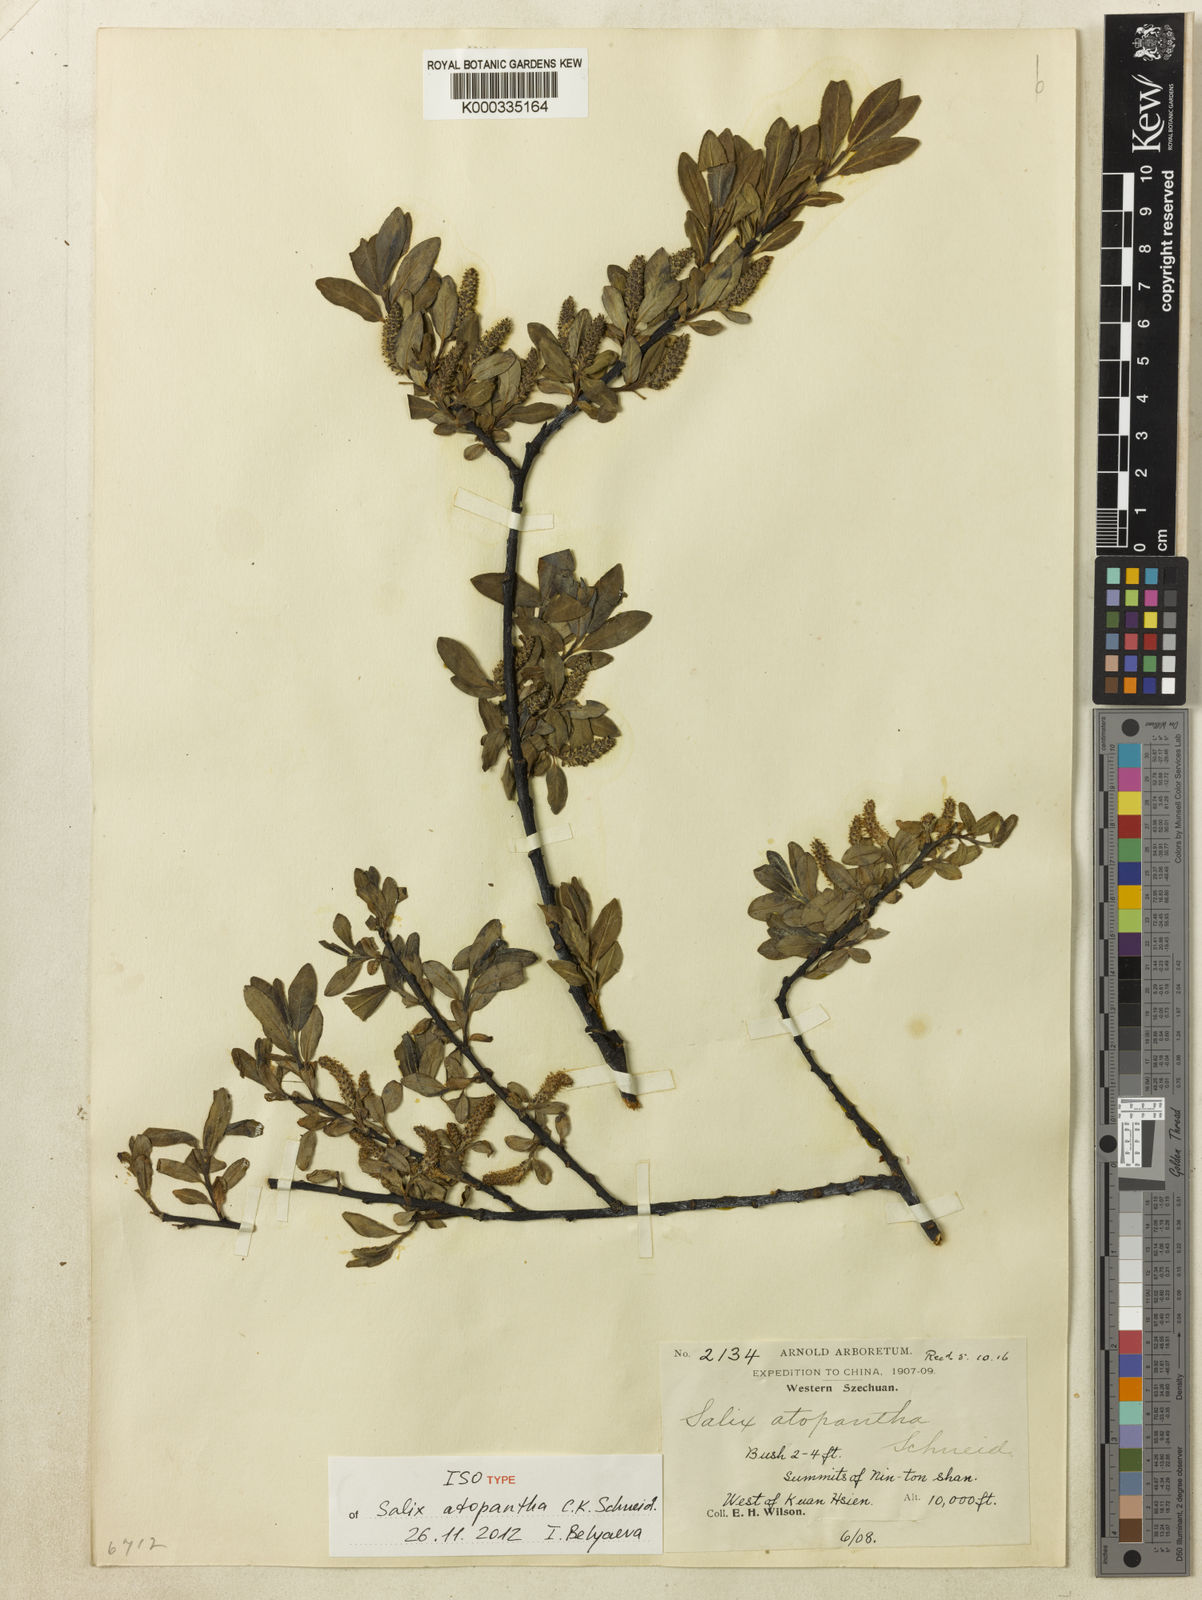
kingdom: Plantae
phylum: Tracheophyta
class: Magnoliopsida
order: Malpighiales
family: Salicaceae
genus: Salix
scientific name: Salix atopantha
